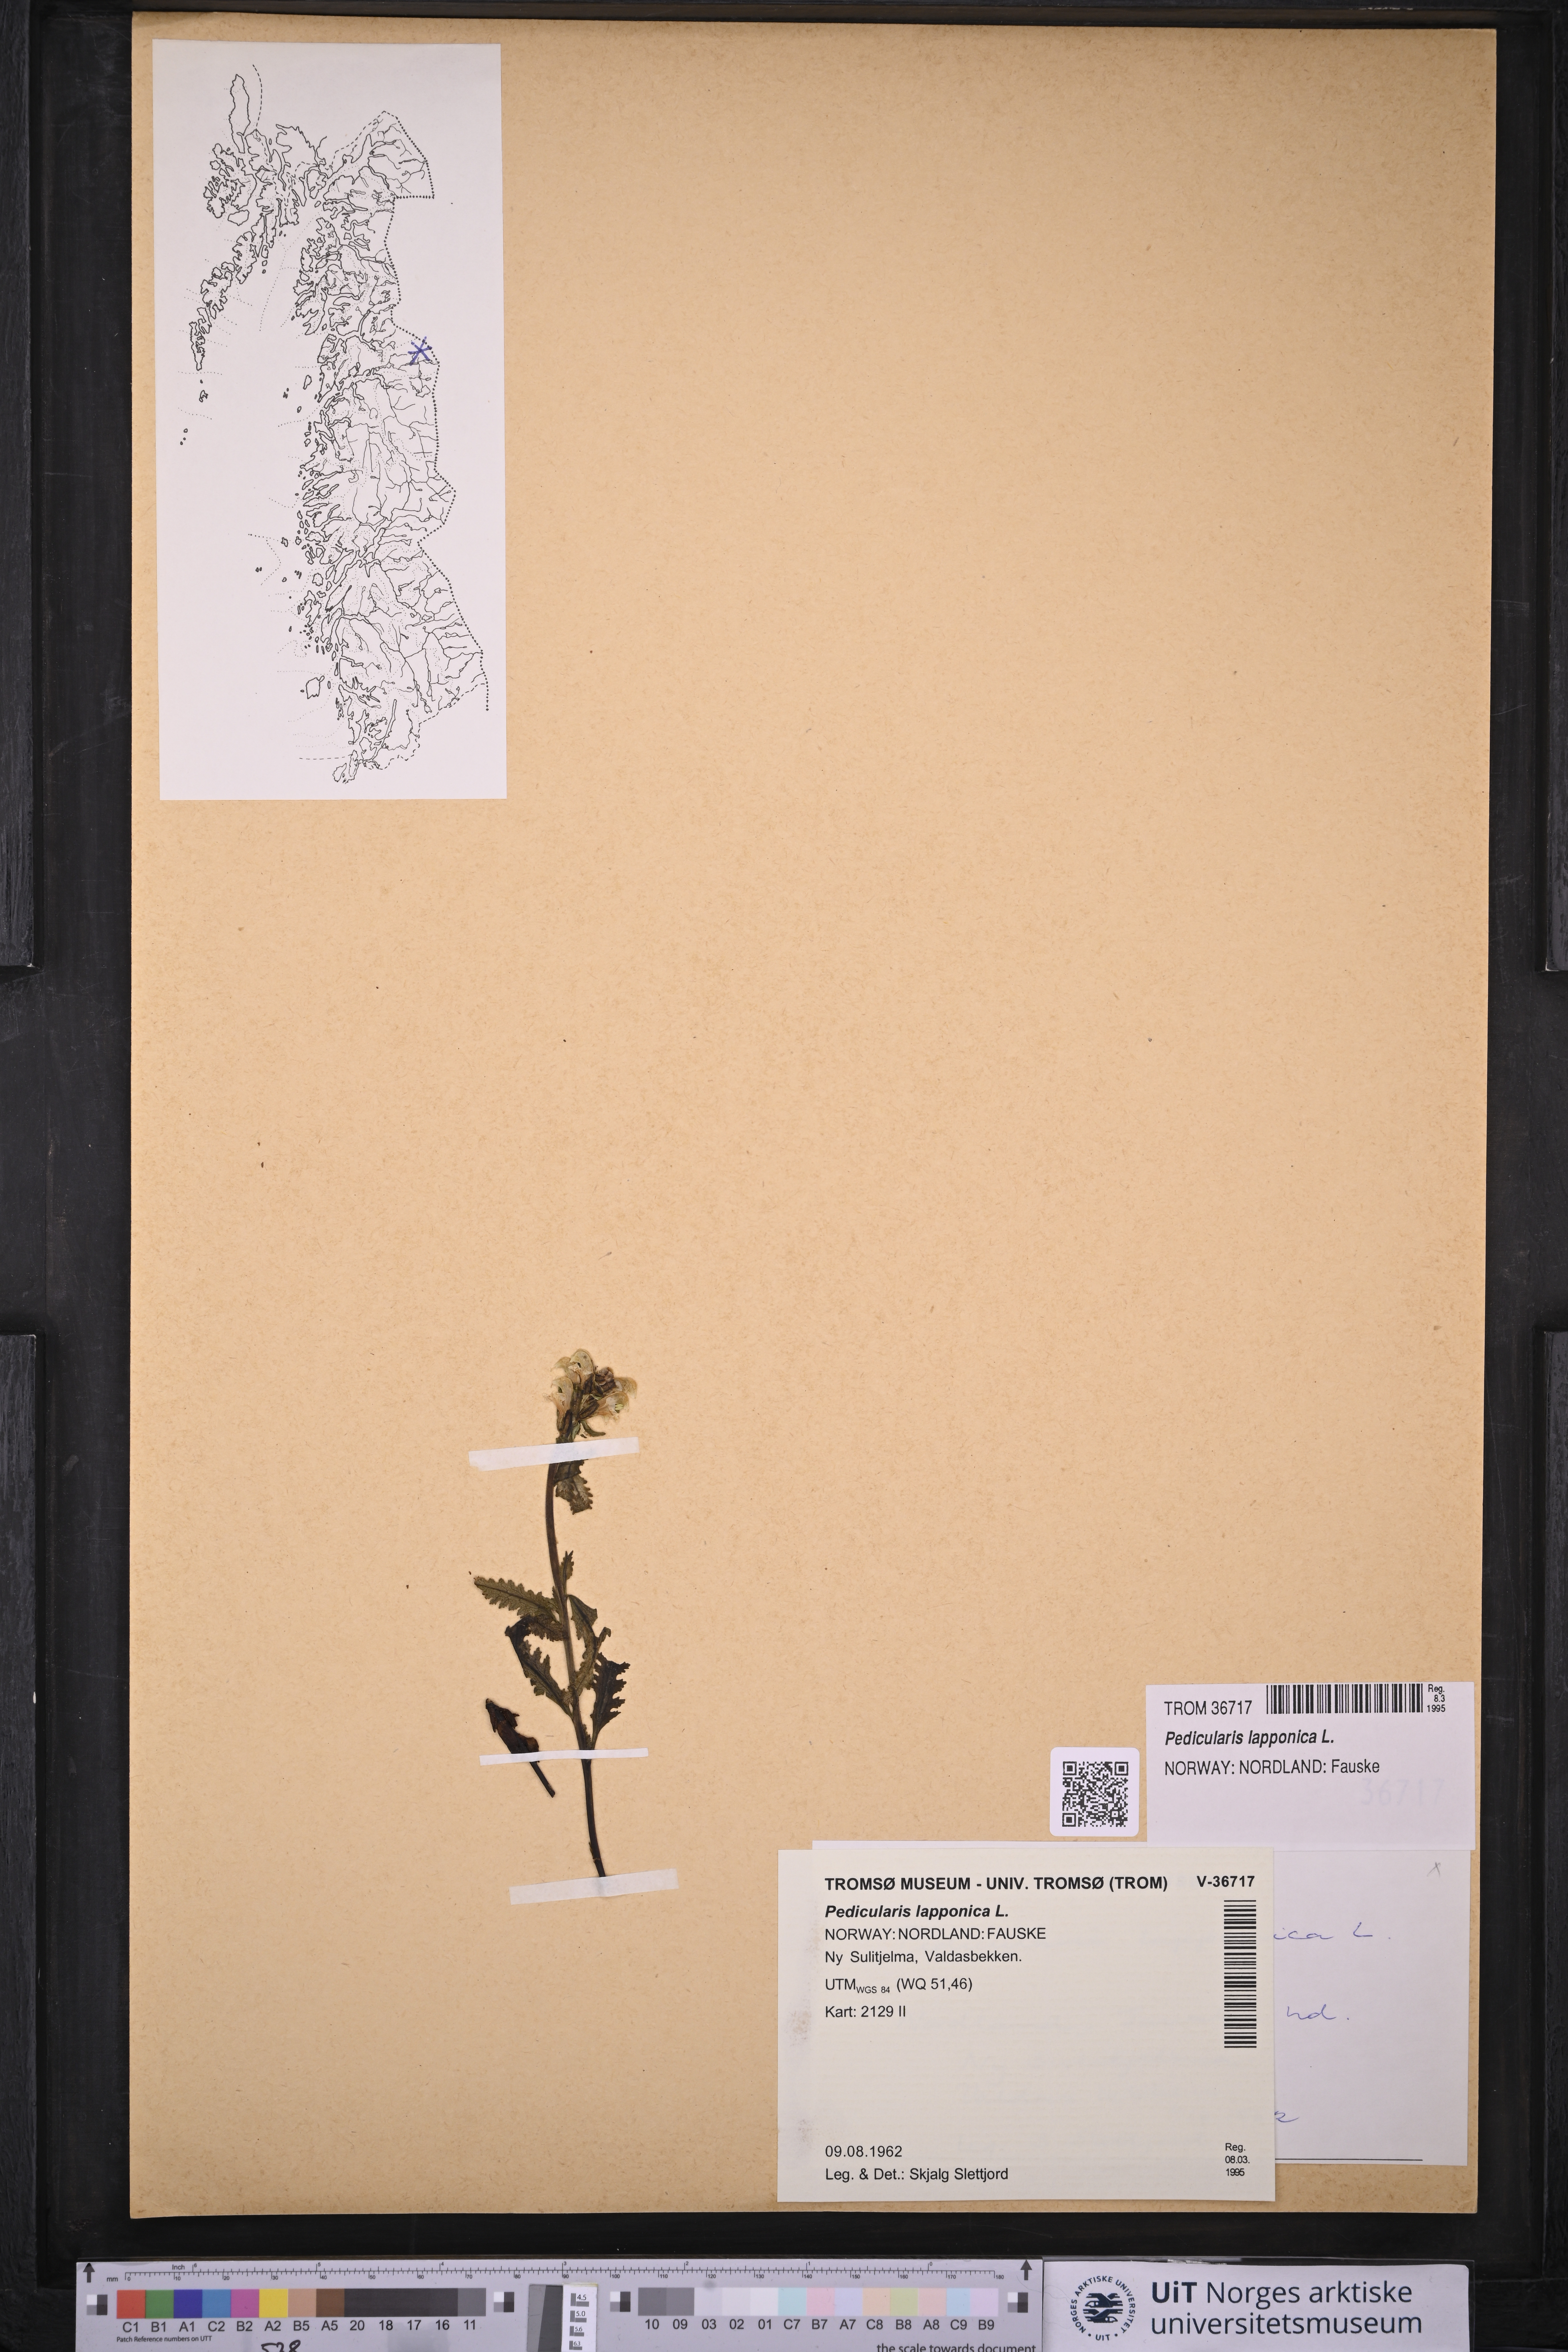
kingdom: Plantae
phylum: Tracheophyta
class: Magnoliopsida
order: Lamiales
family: Orobanchaceae
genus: Pedicularis
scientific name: Pedicularis lapponica
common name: Lapland lousewort
